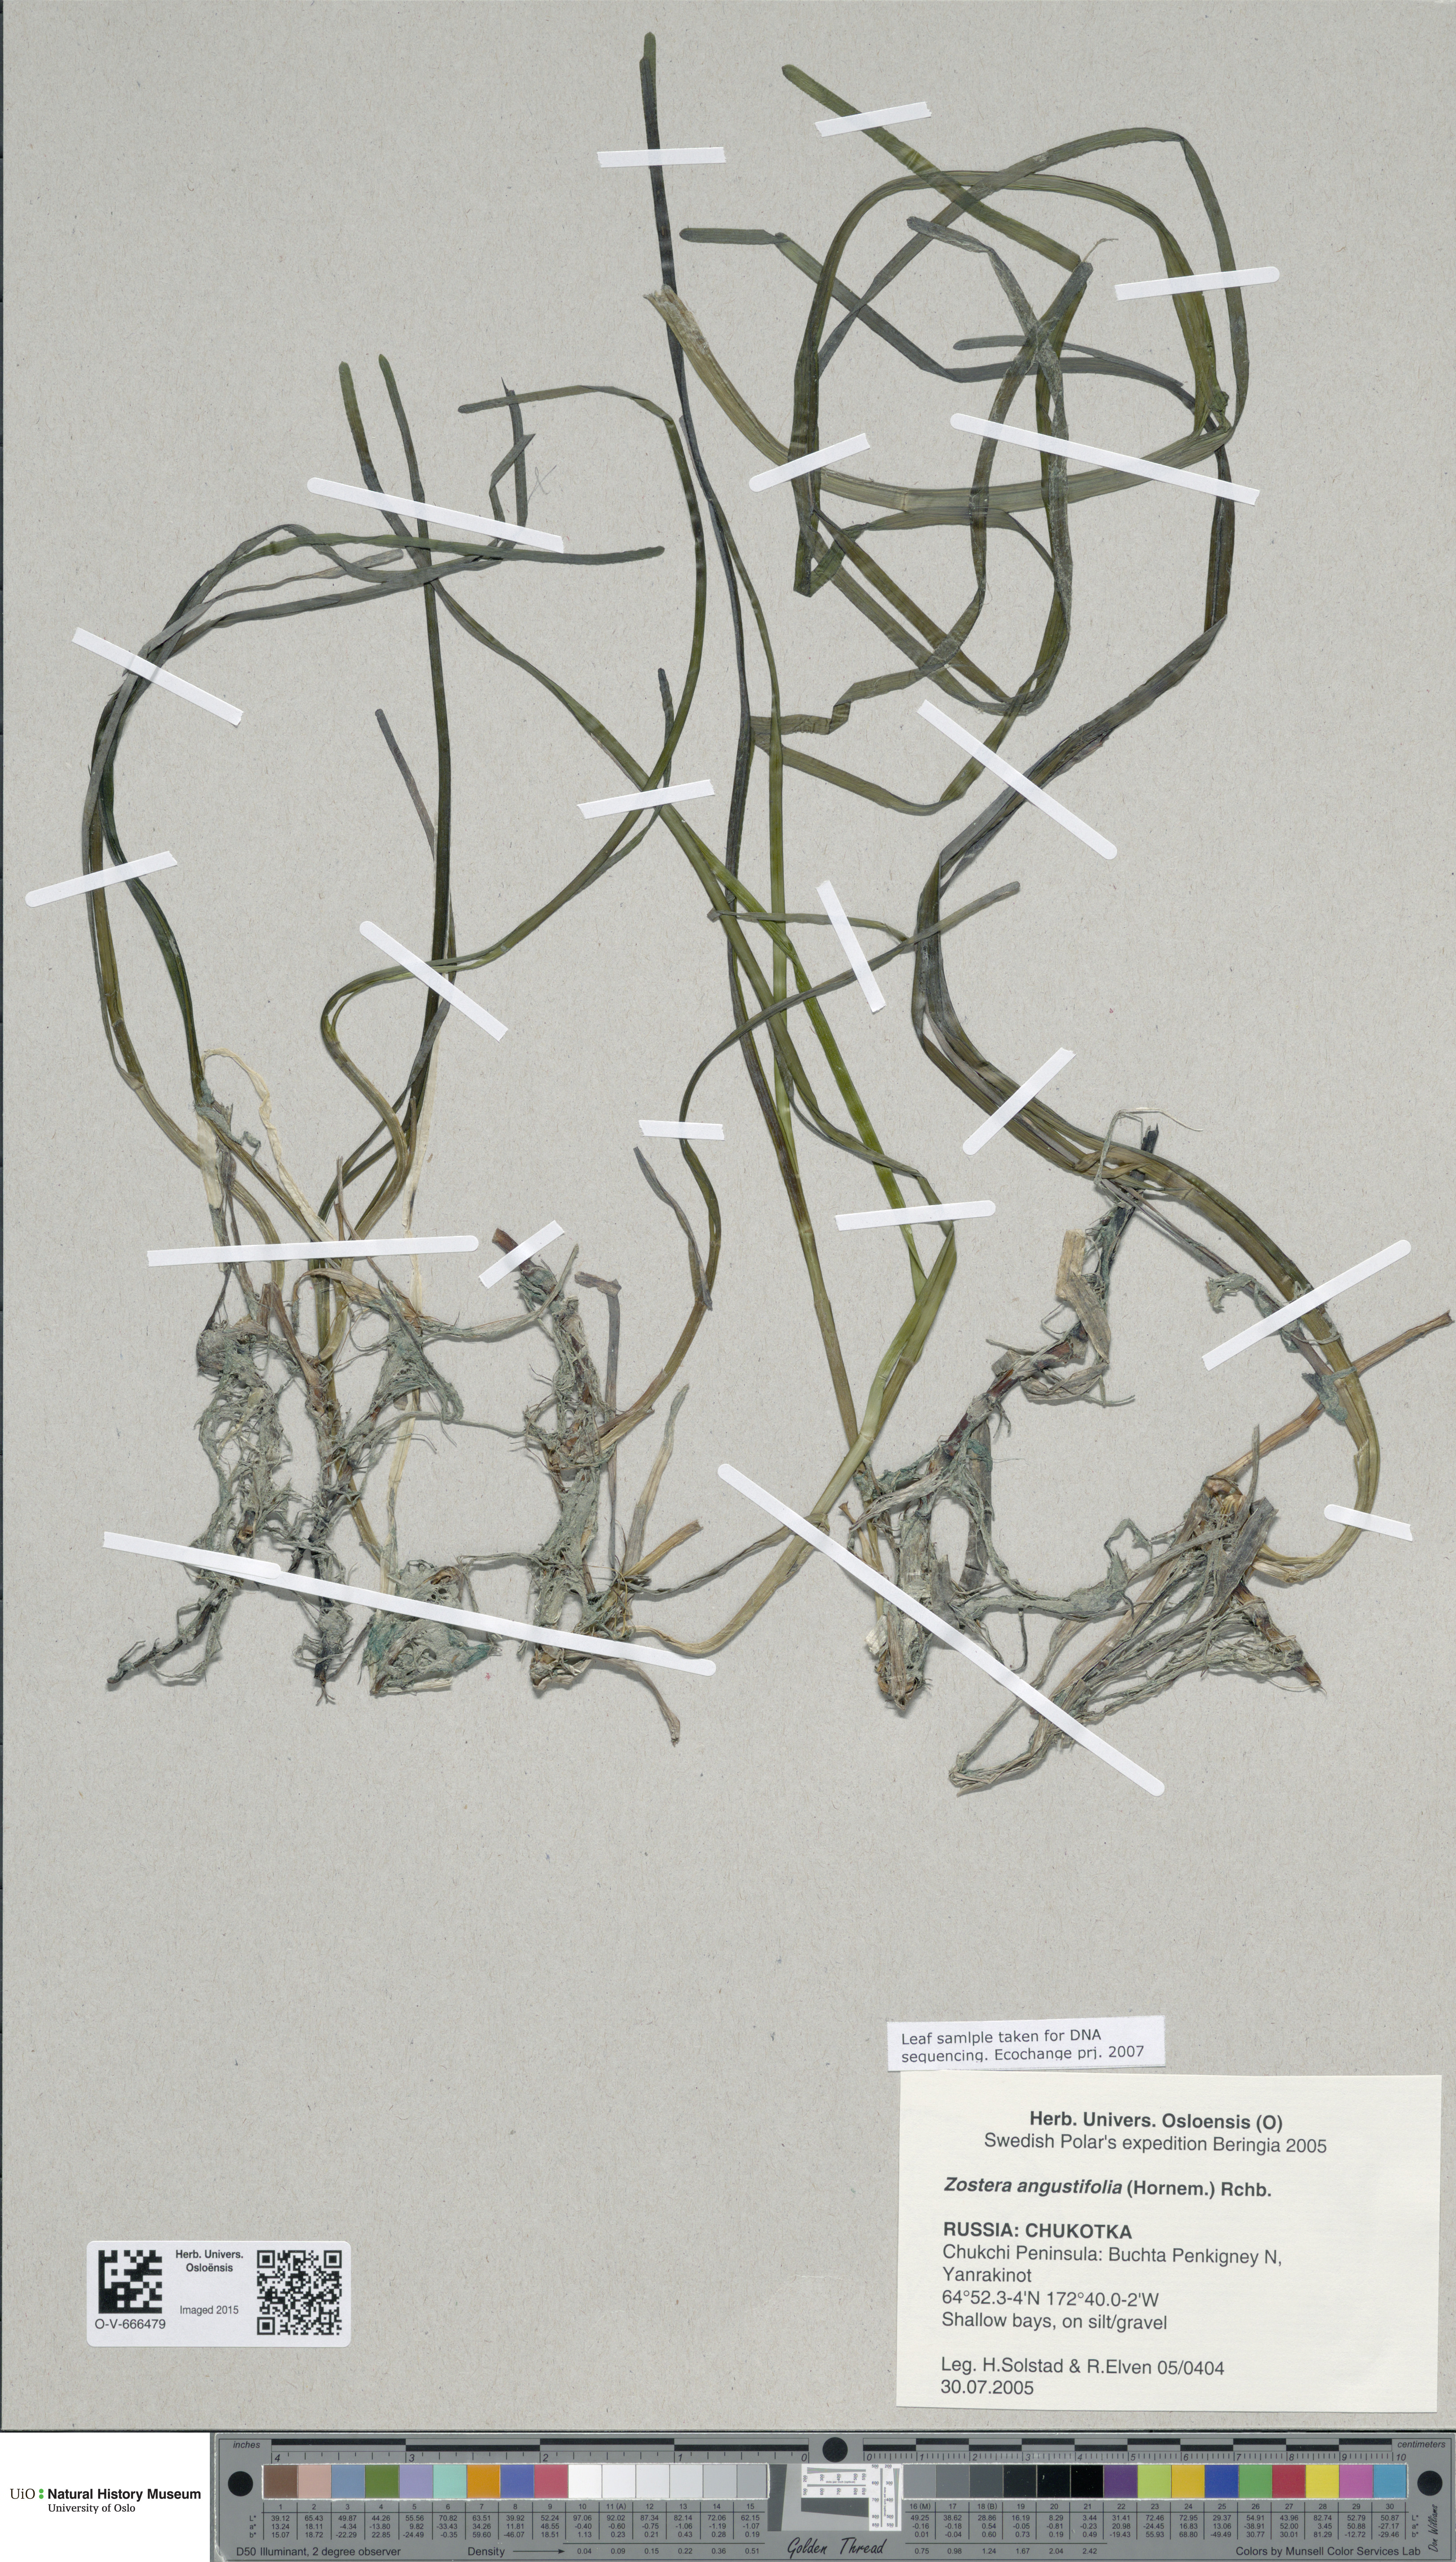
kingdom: Plantae
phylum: Tracheophyta
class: Liliopsida
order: Alismatales
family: Zosteraceae
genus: Zostera
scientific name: Zostera angustifolia
